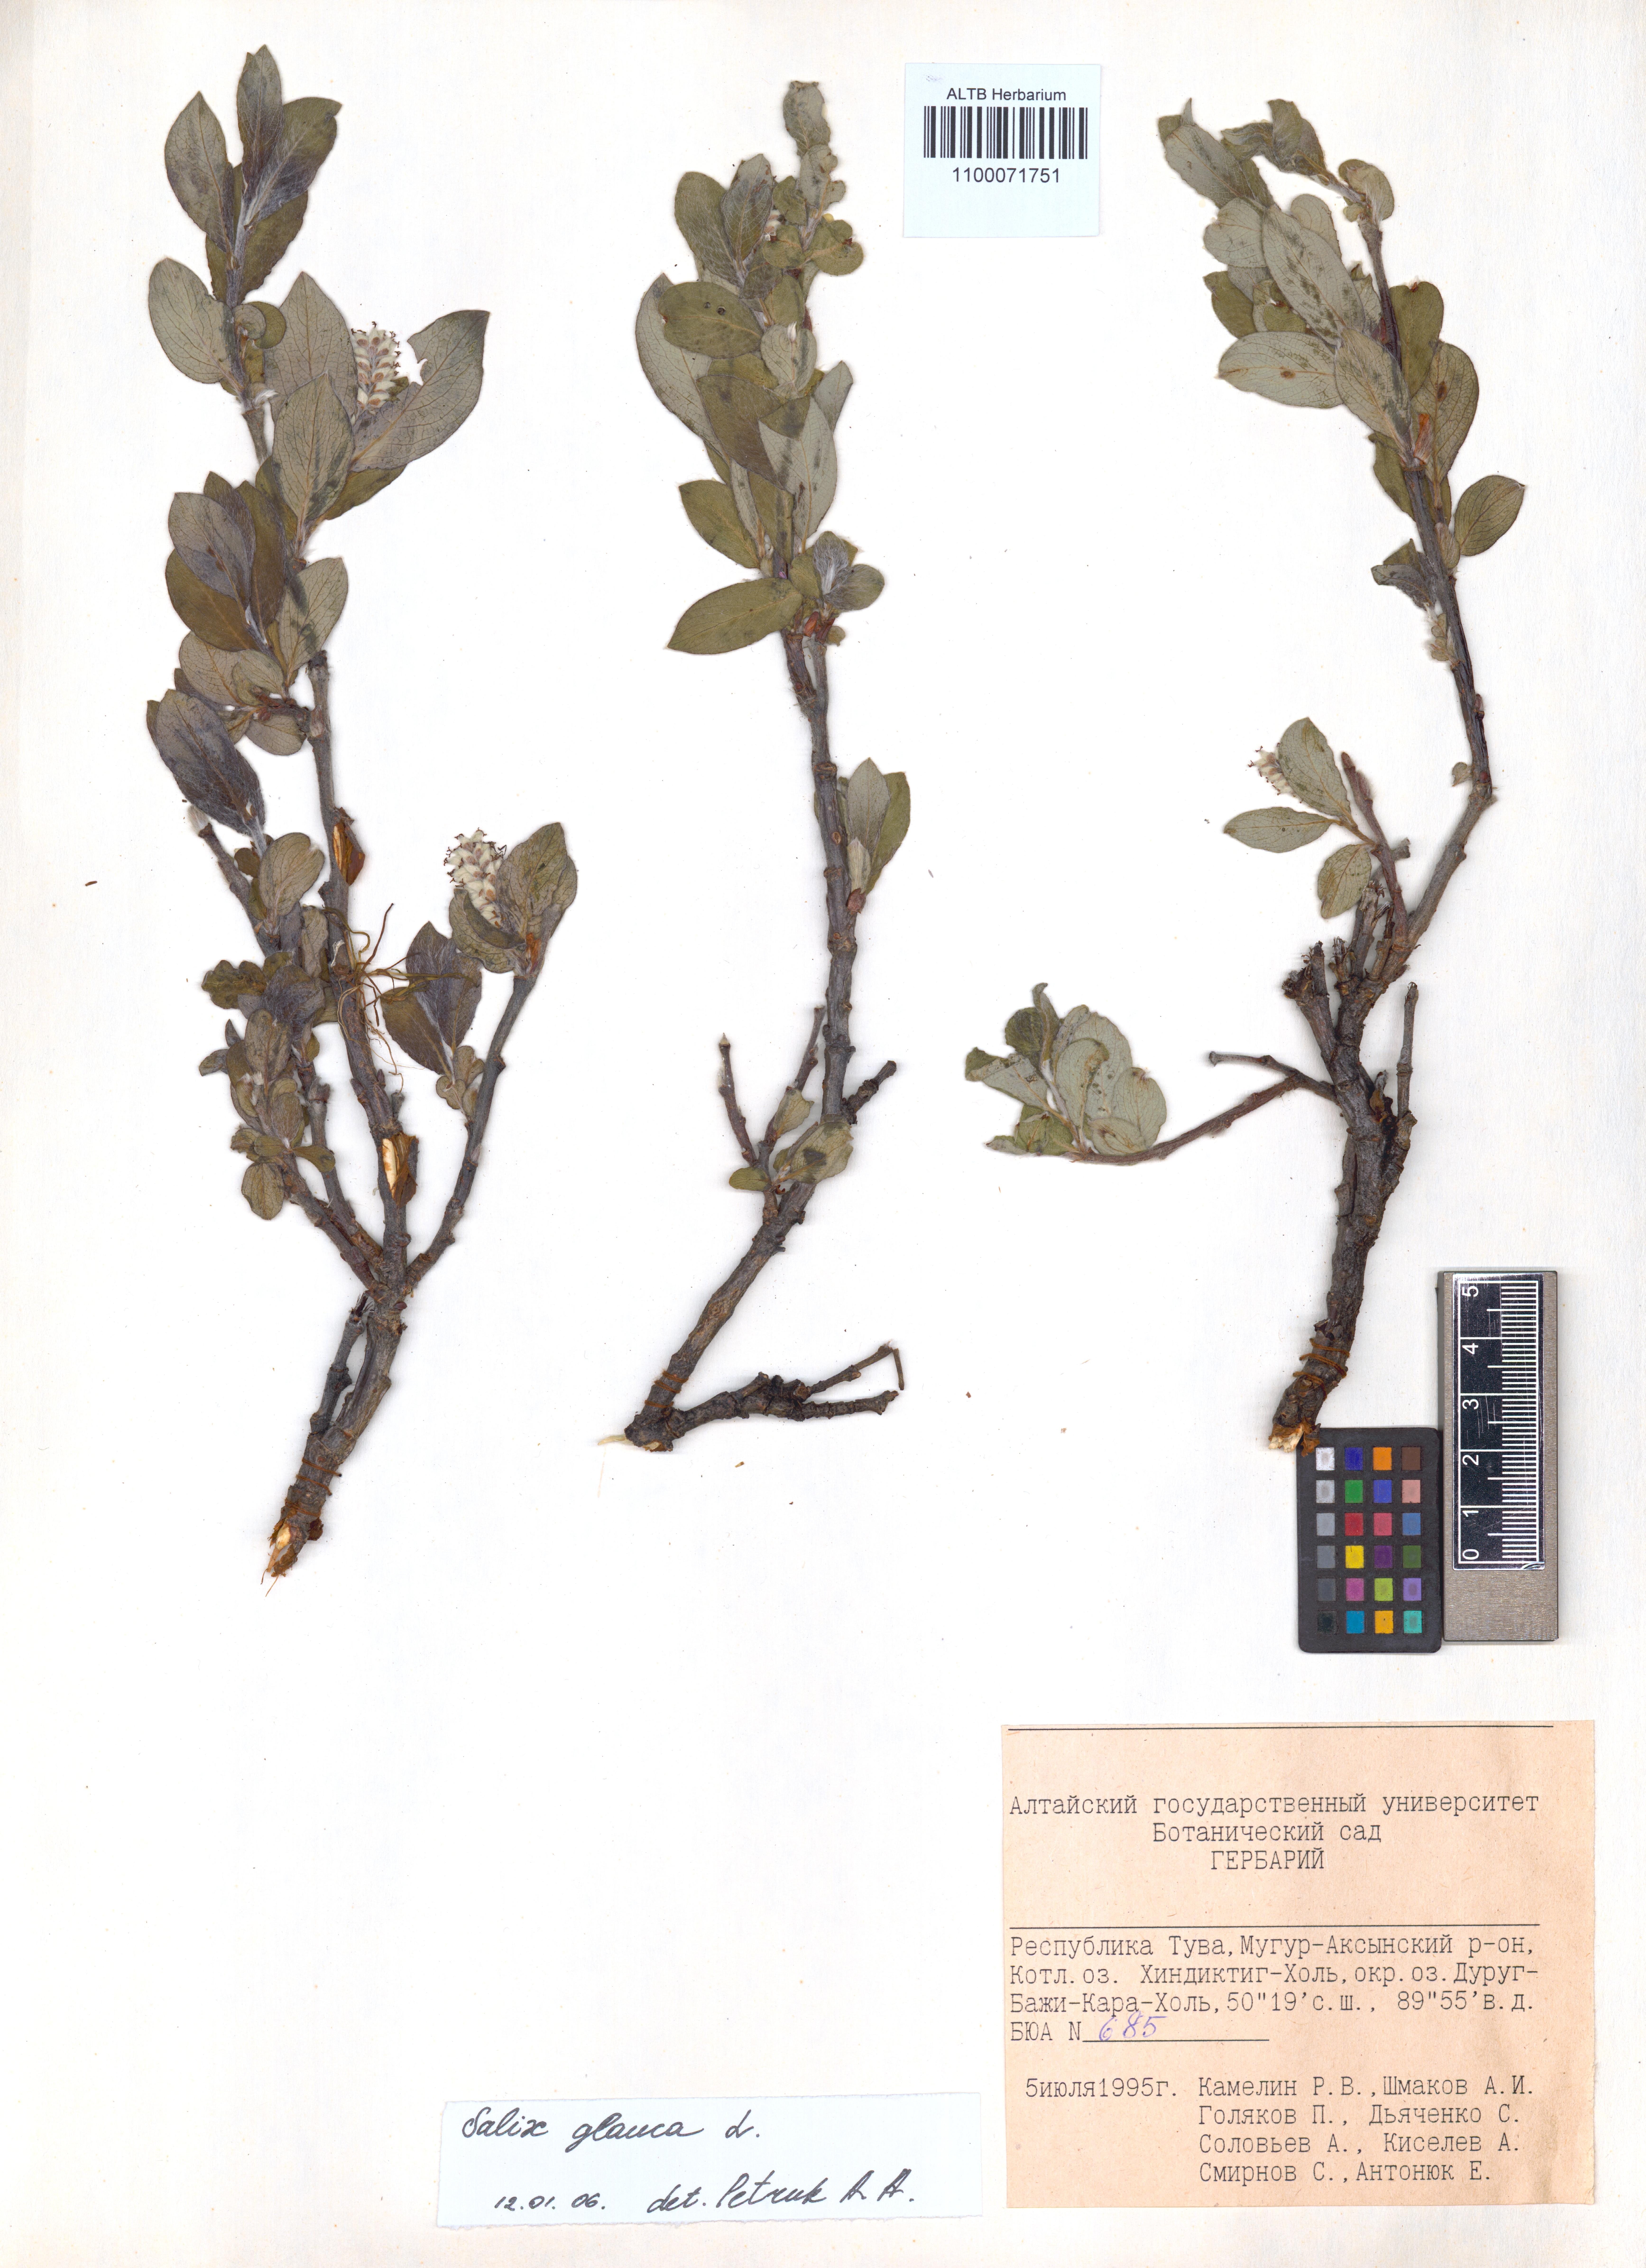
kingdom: Plantae
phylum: Tracheophyta
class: Magnoliopsida
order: Malpighiales
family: Salicaceae
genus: Salix
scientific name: Salix glauca
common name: Glaucous willow
